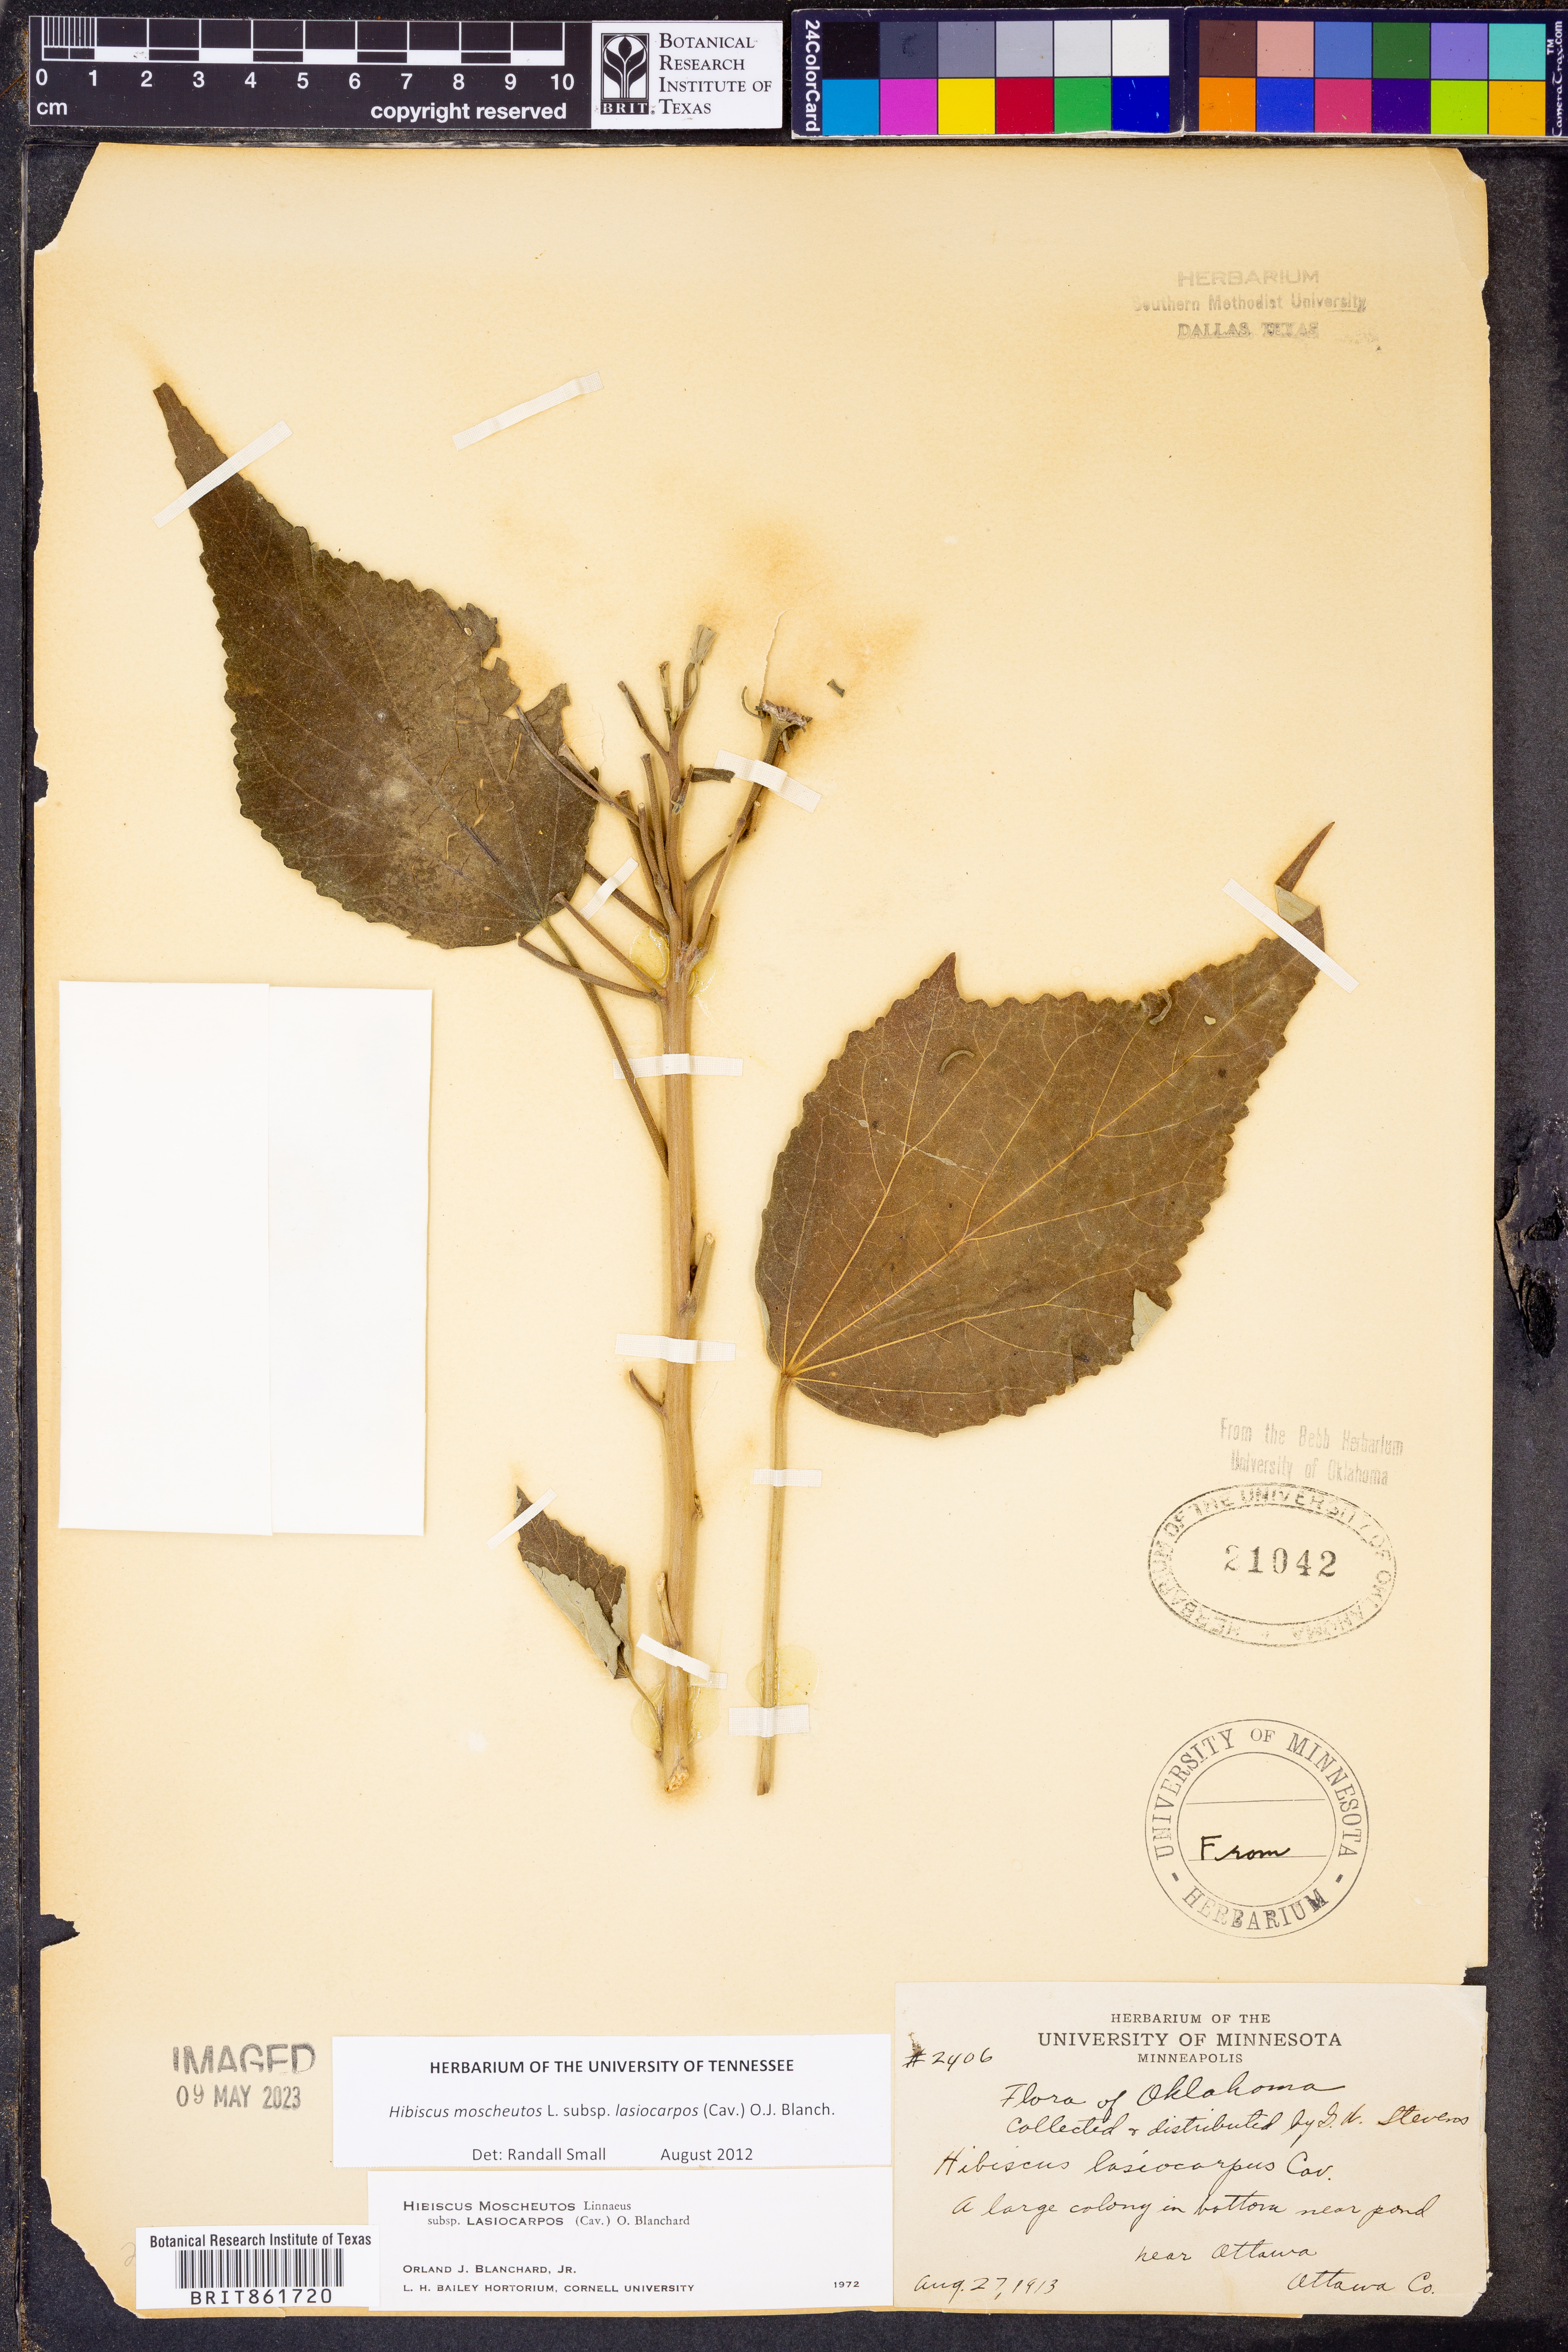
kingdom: Plantae
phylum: Tracheophyta
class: Magnoliopsida
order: Malvales
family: Malvaceae
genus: Hibiscus
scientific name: Hibiscus moscheutos
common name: Common rose-mallow
